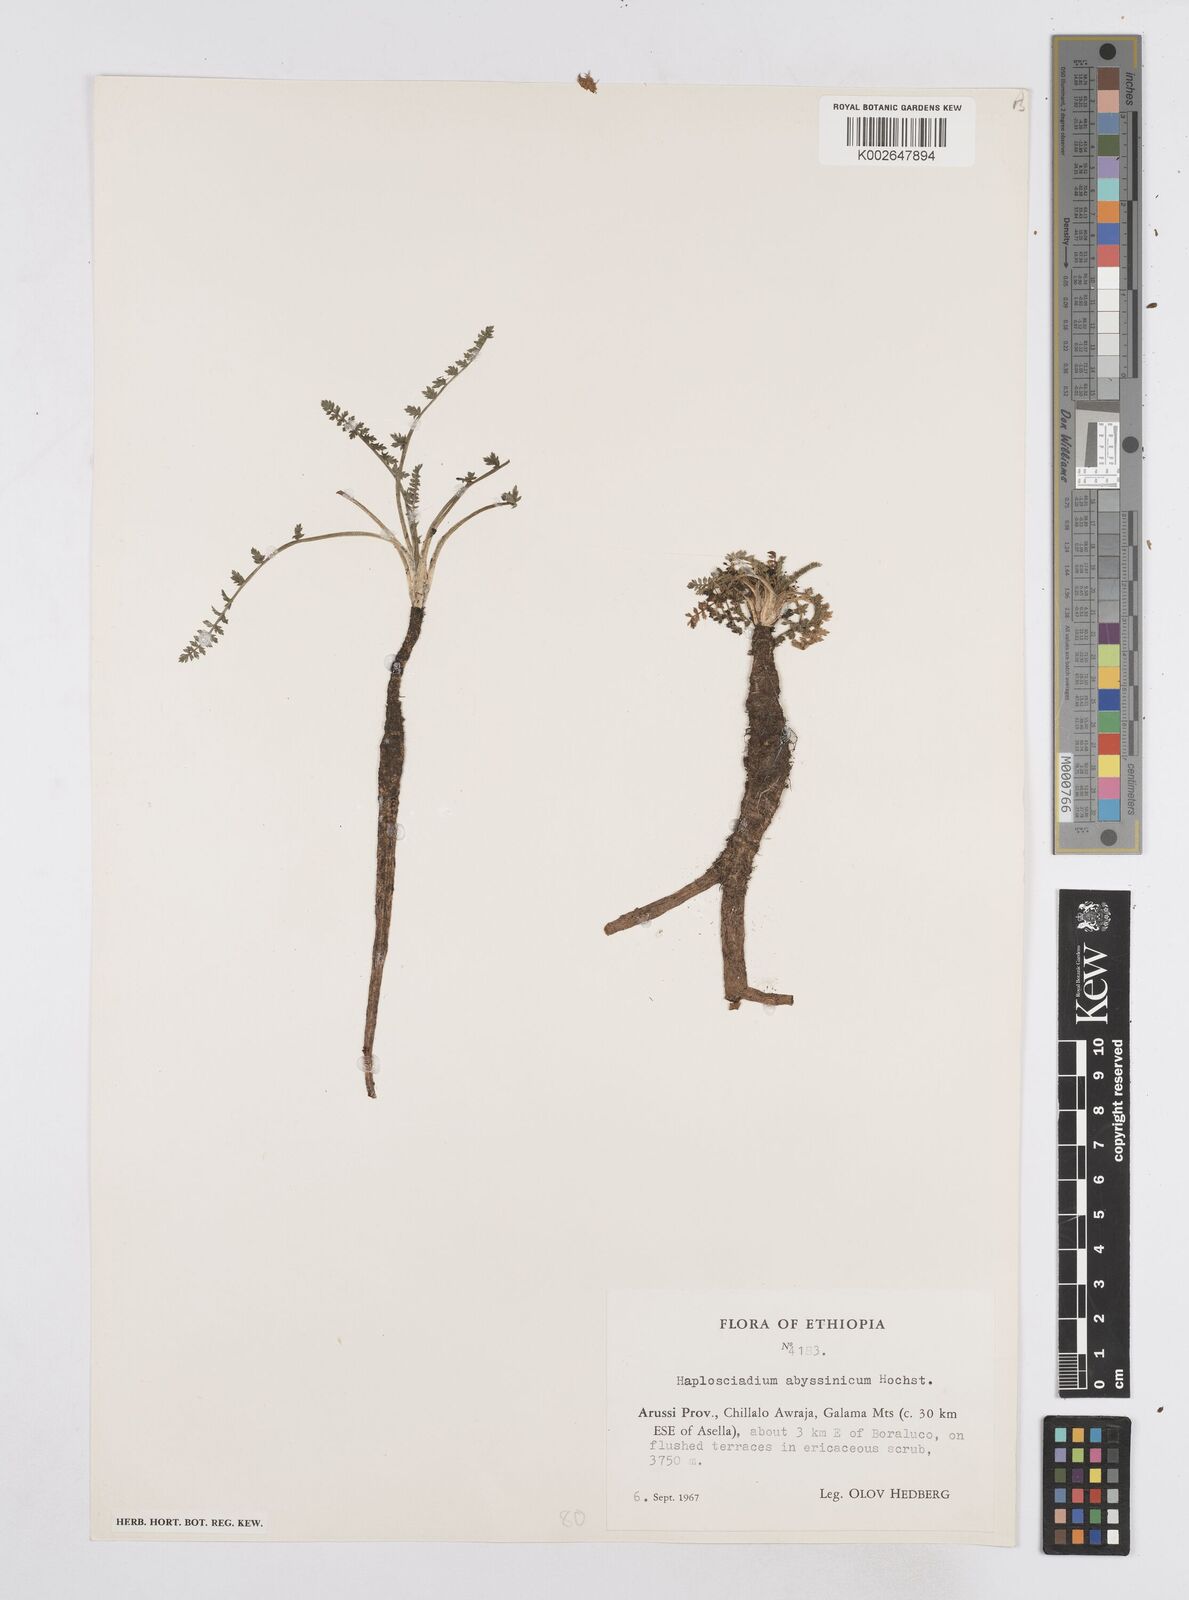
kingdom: Plantae
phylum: Tracheophyta
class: Magnoliopsida
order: Apiales
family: Apiaceae
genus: Haplosciadium
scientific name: Haplosciadium abyssinicum
